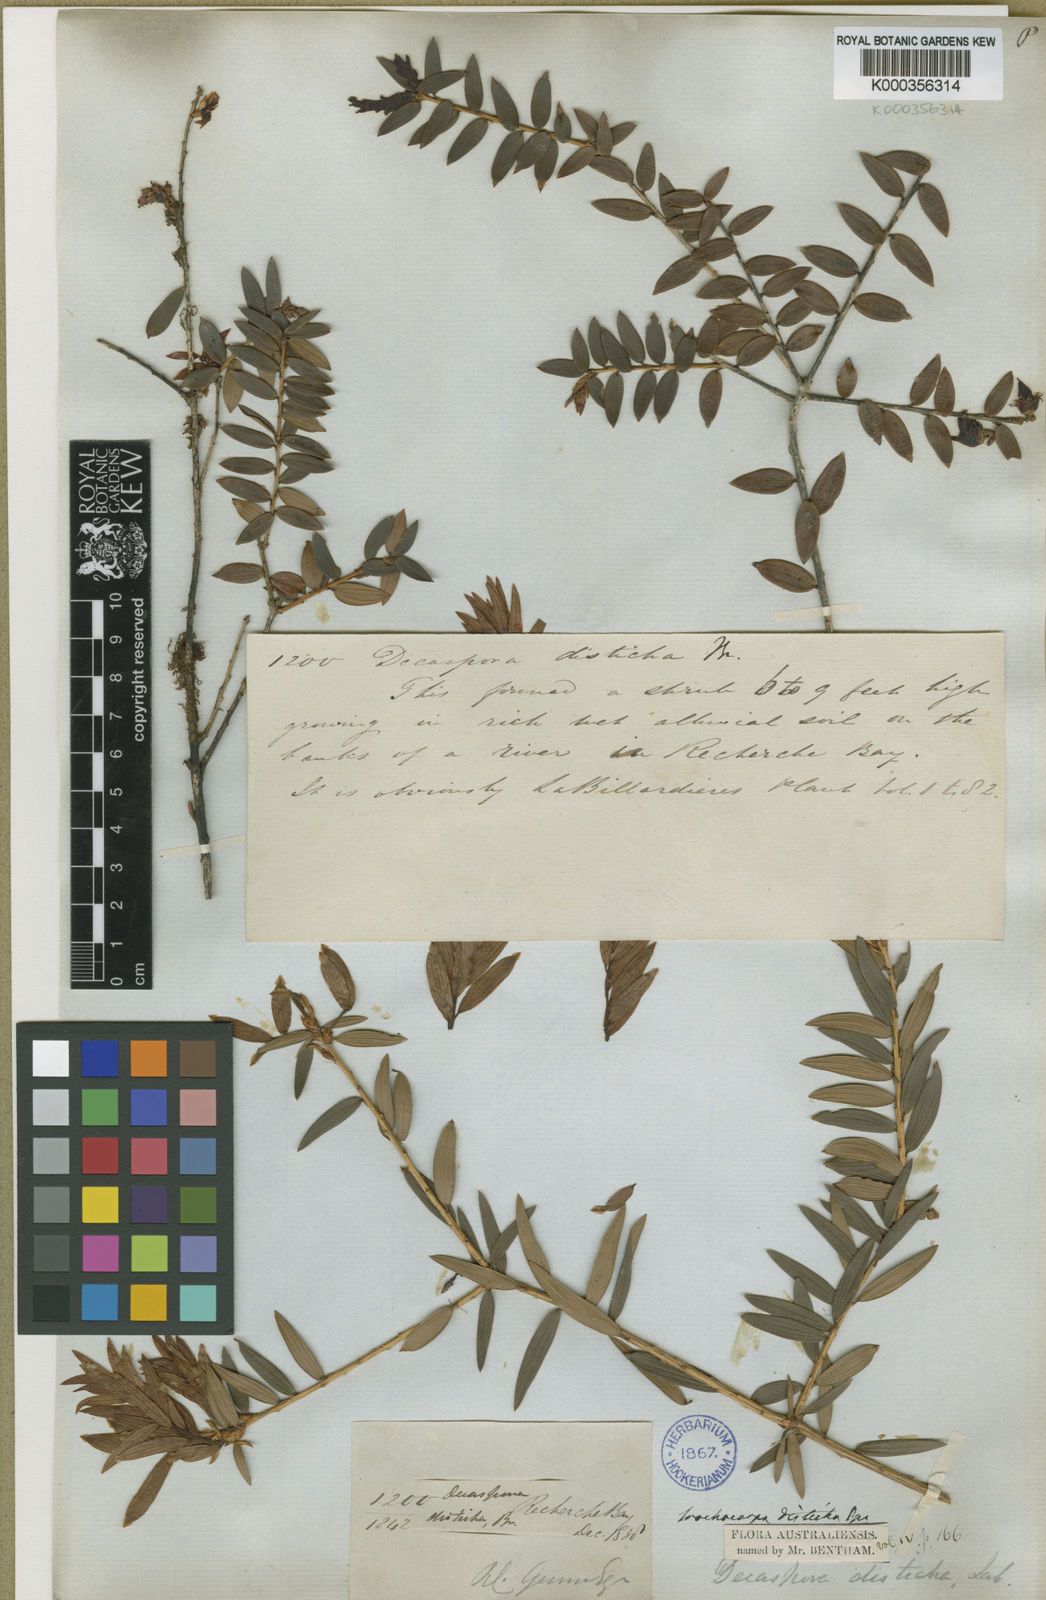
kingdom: Plantae
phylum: Tracheophyta
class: Magnoliopsida
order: Ericales
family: Ericaceae
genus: Trochocarpa
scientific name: Trochocarpa disticha
